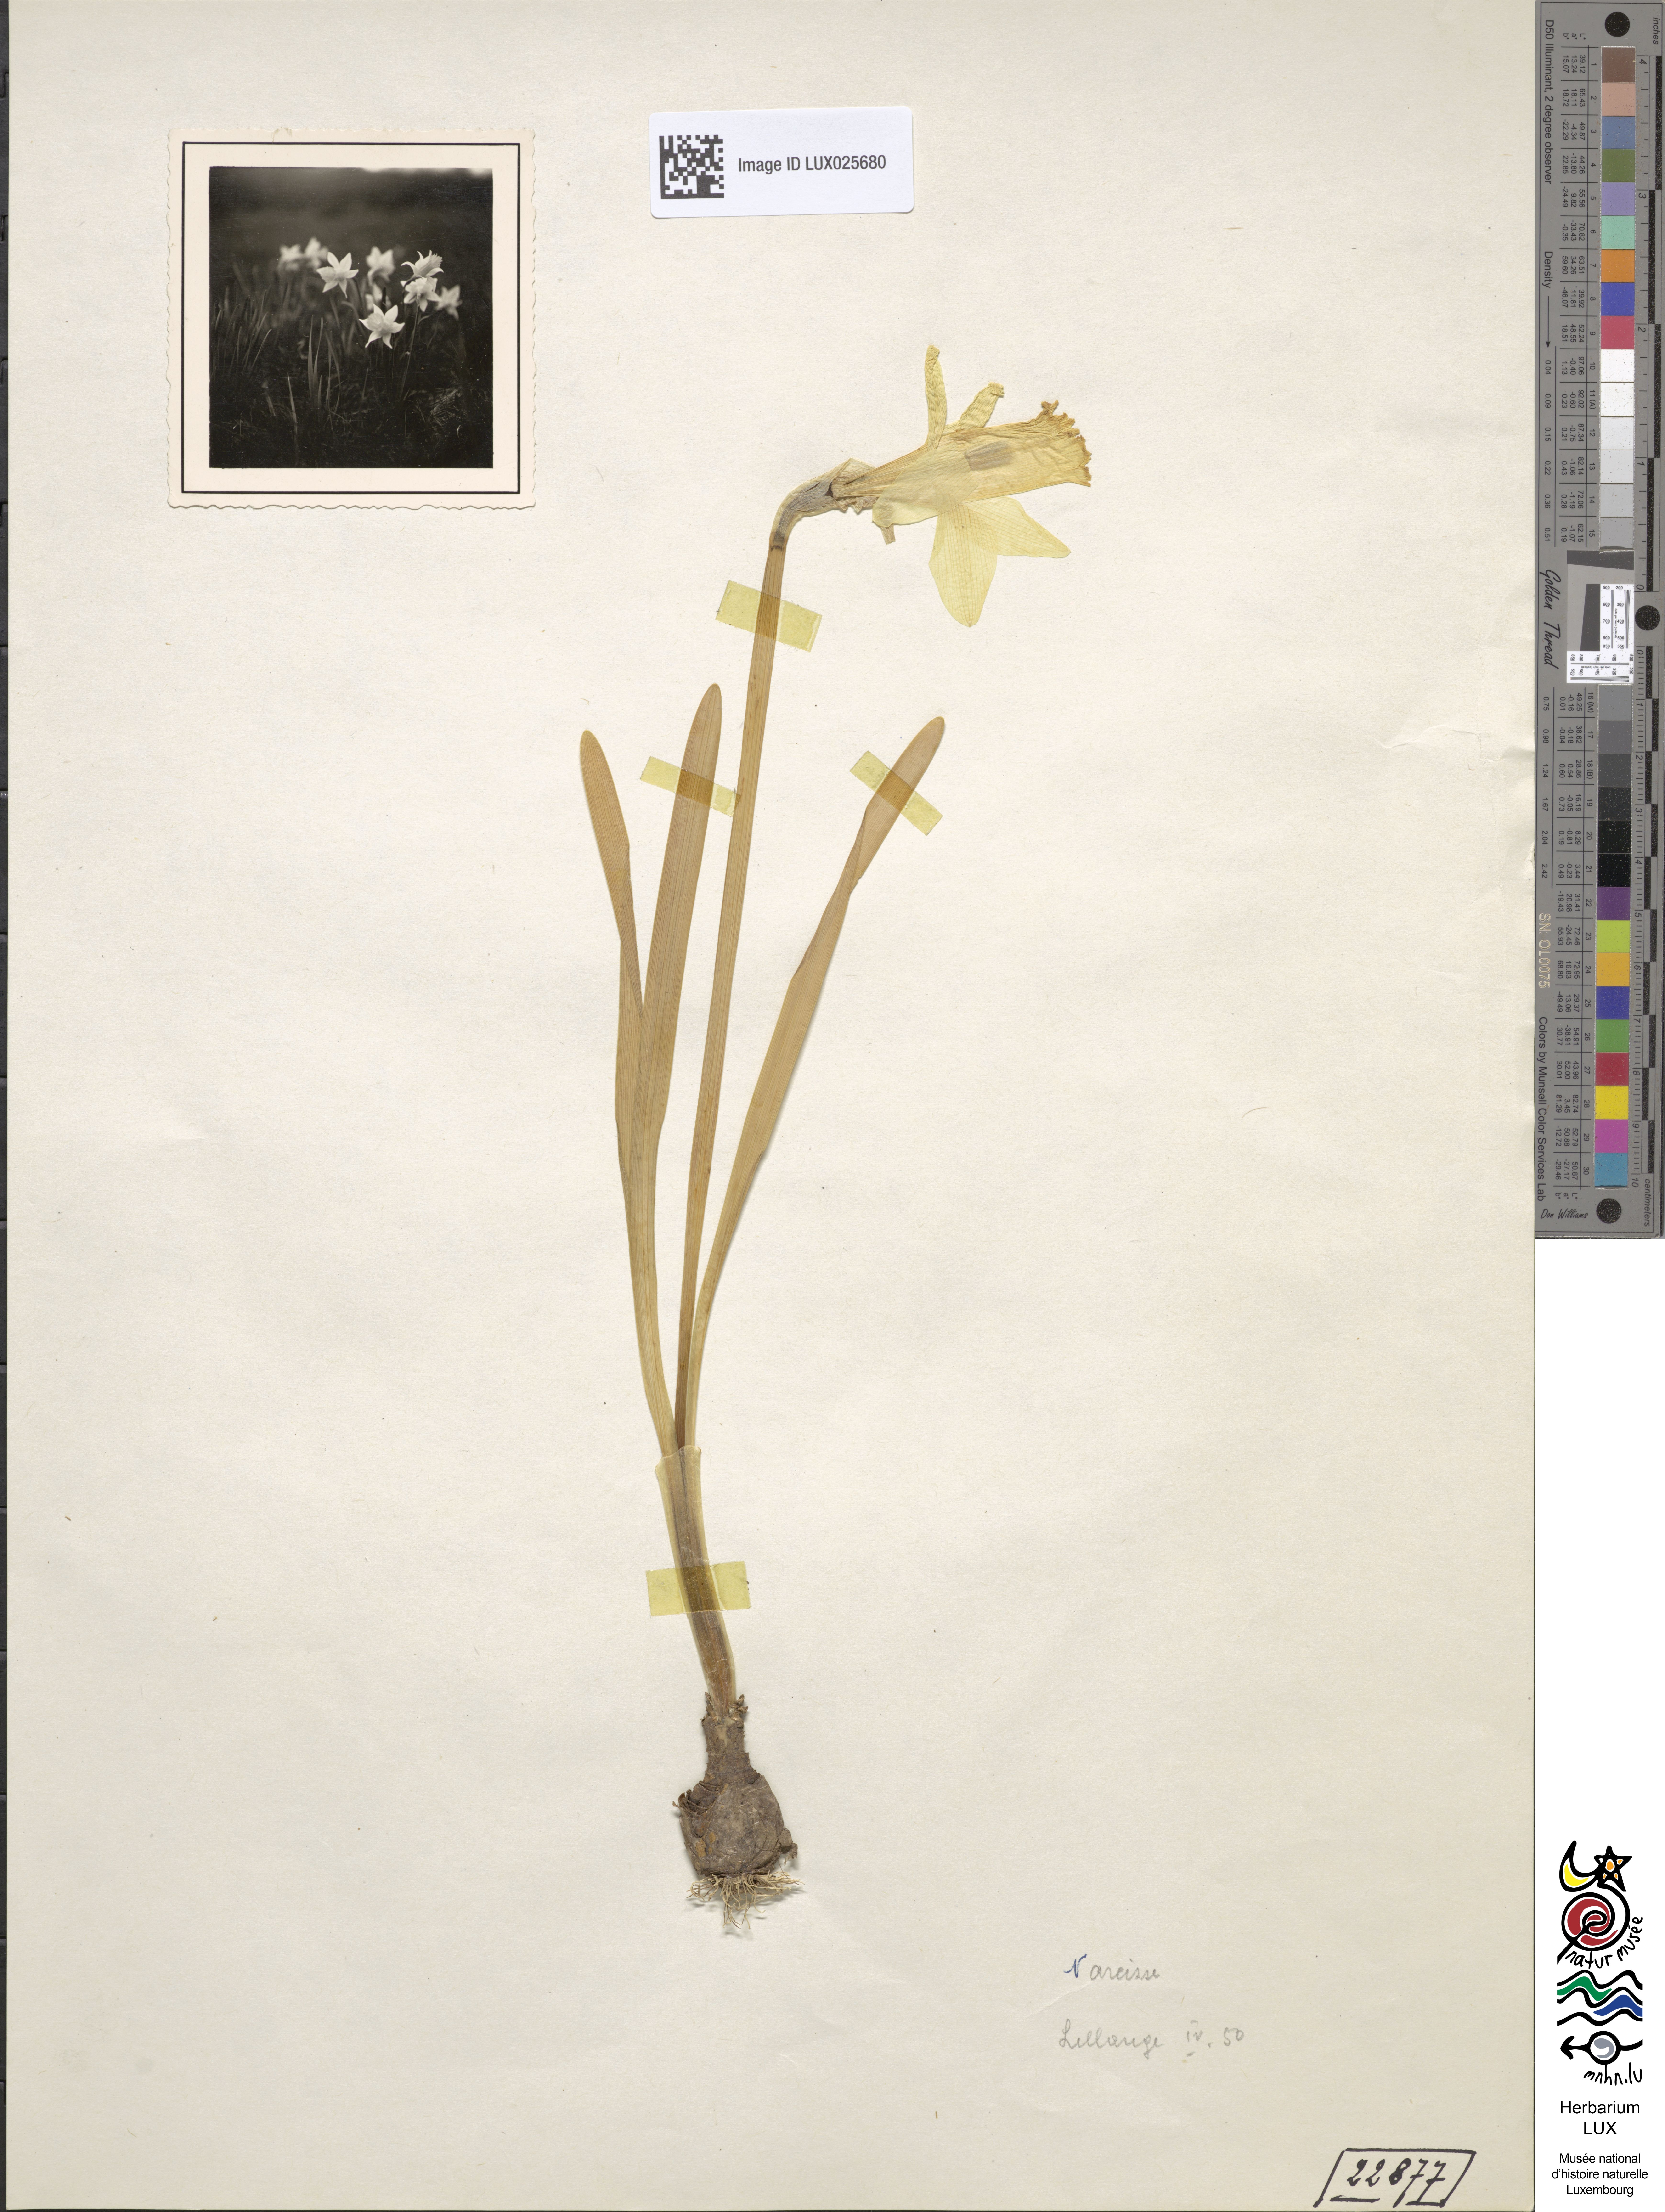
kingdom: Plantae
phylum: Tracheophyta
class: Liliopsida
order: Asparagales
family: Amaryllidaceae
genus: Narcissus
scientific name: Narcissus poeticus
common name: Pheasant's-eye daffodil
